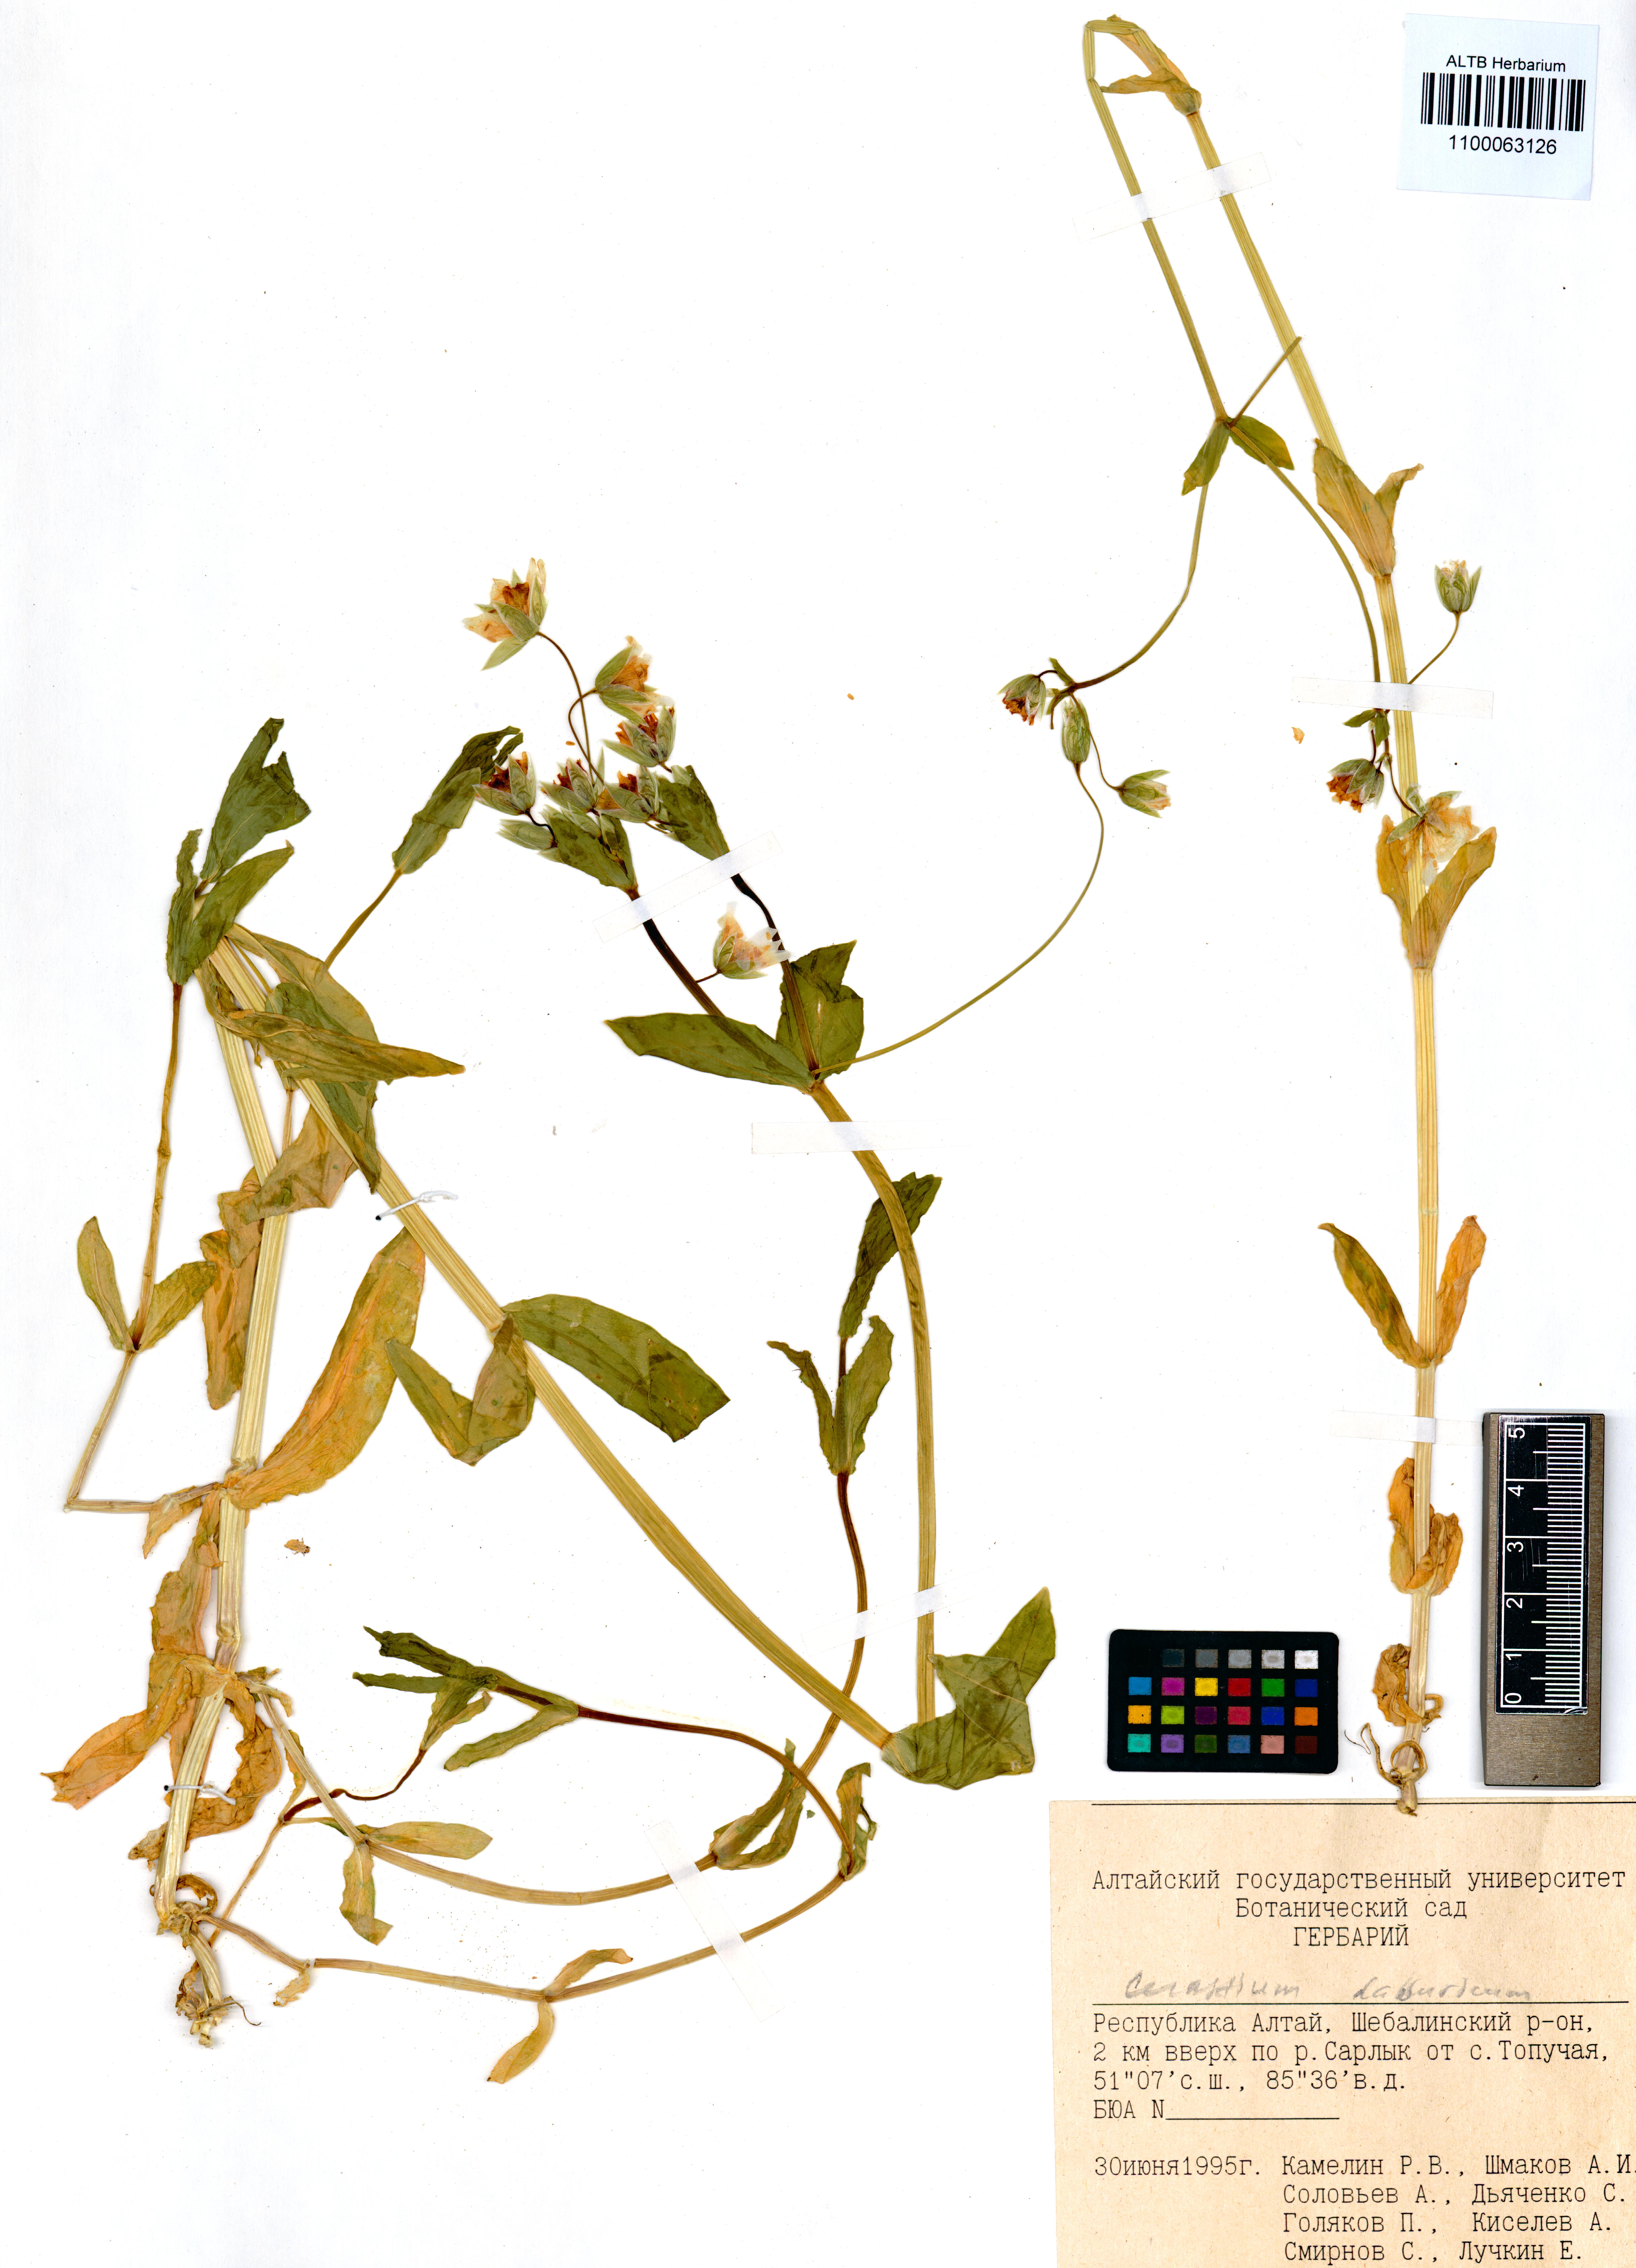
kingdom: Plantae
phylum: Tracheophyta
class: Magnoliopsida
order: Caryophyllales
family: Caryophyllaceae
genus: Dichodon
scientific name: Dichodon davuricum
